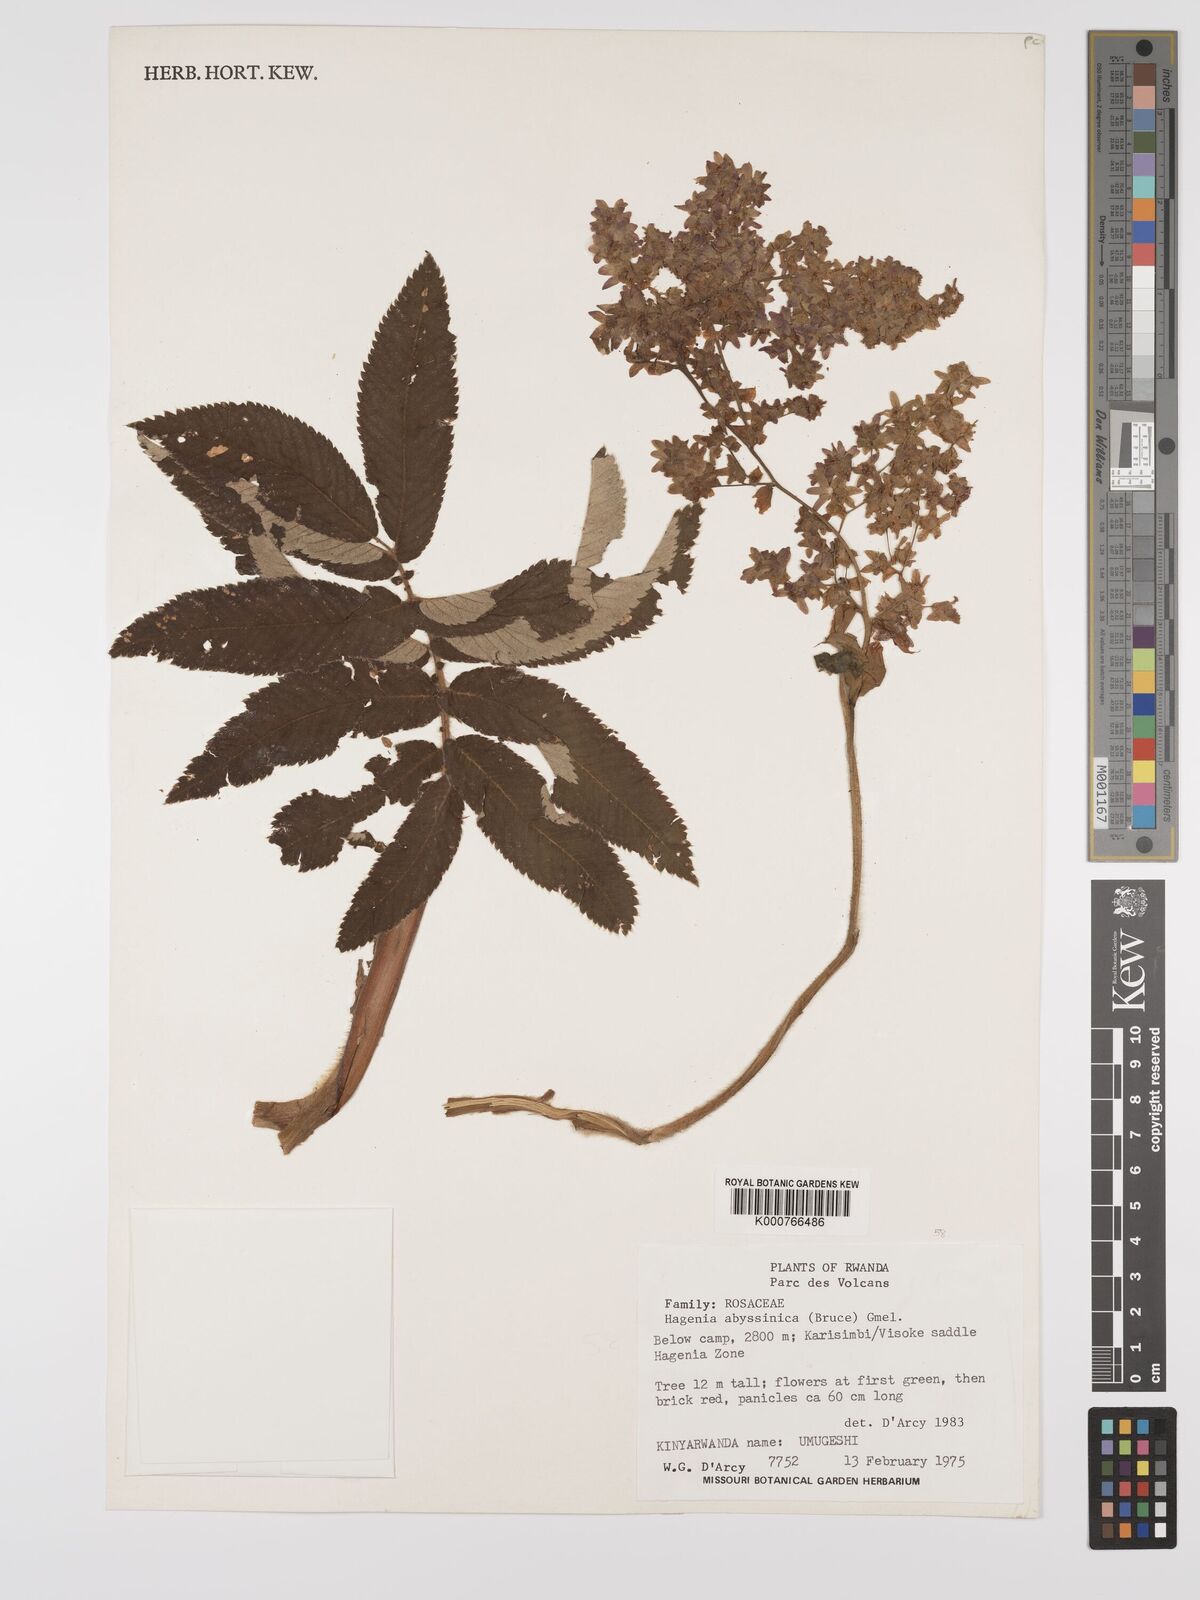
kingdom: Plantae
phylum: Tracheophyta
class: Magnoliopsida
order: Rosales
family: Rosaceae
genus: Hagenia
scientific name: Hagenia abyssinica
